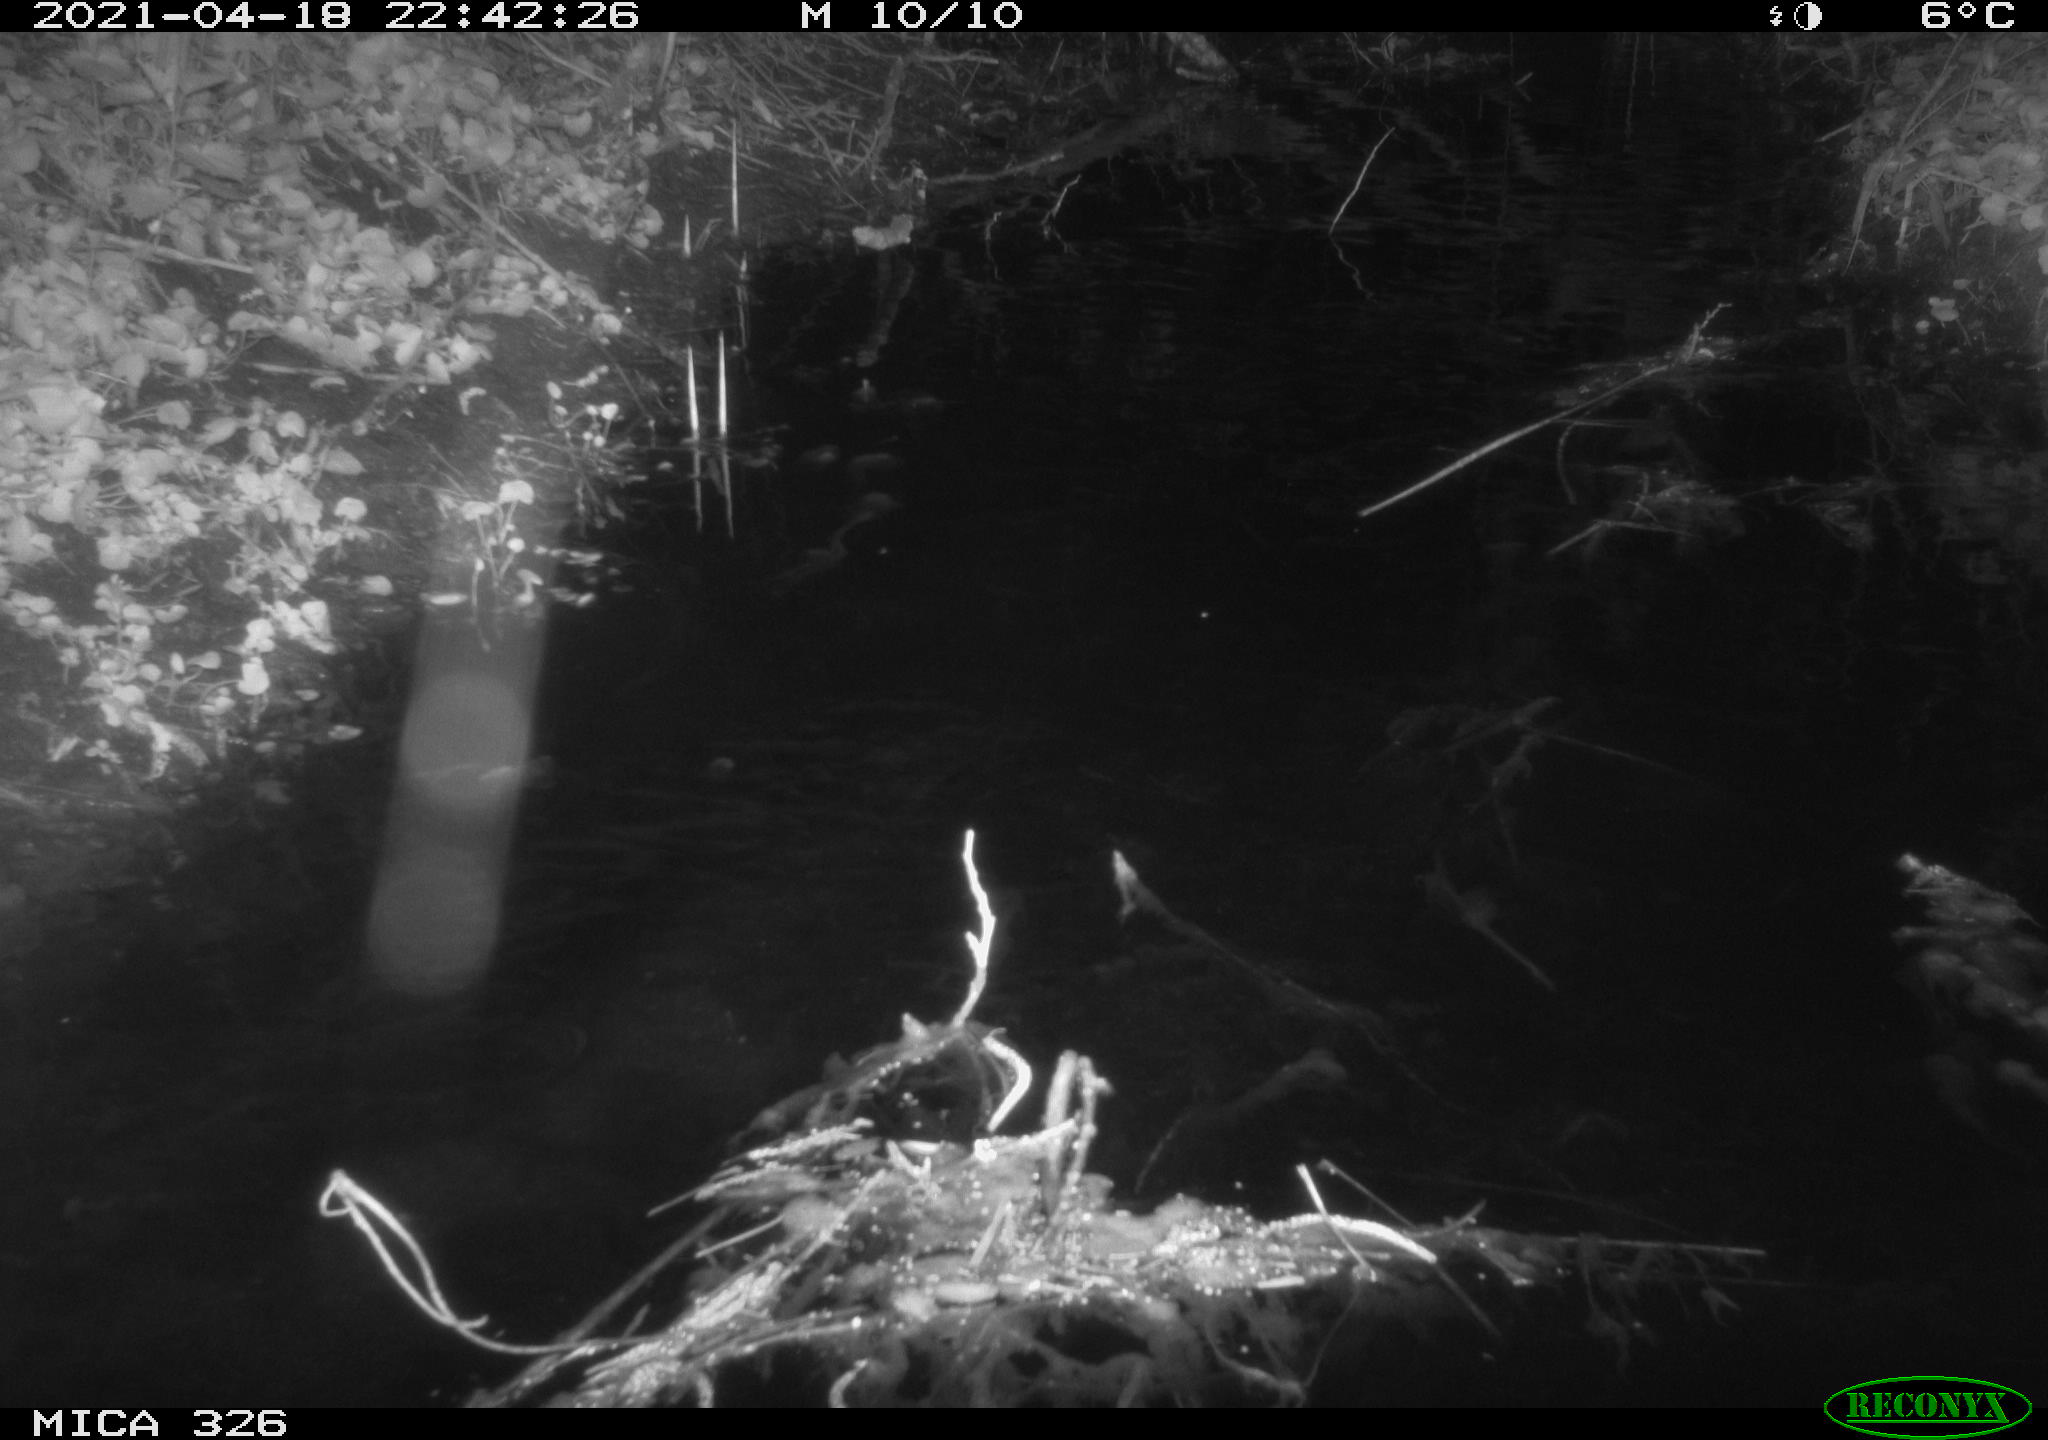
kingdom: Animalia
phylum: Chordata
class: Mammalia
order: Rodentia
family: Cricetidae
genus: Ondatra
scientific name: Ondatra zibethicus
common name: Muskrat
